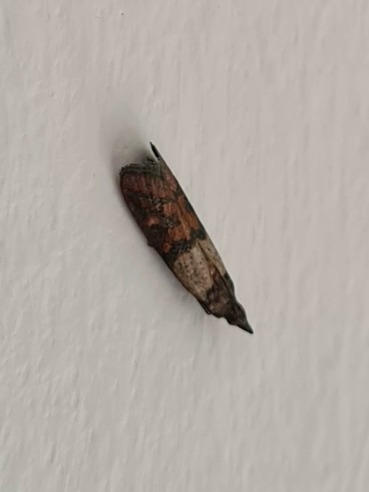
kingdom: Animalia
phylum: Arthropoda
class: Insecta
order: Lepidoptera
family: Pyralidae
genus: Plodia
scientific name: Plodia interpunctella
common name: Tofarvet frømøl
